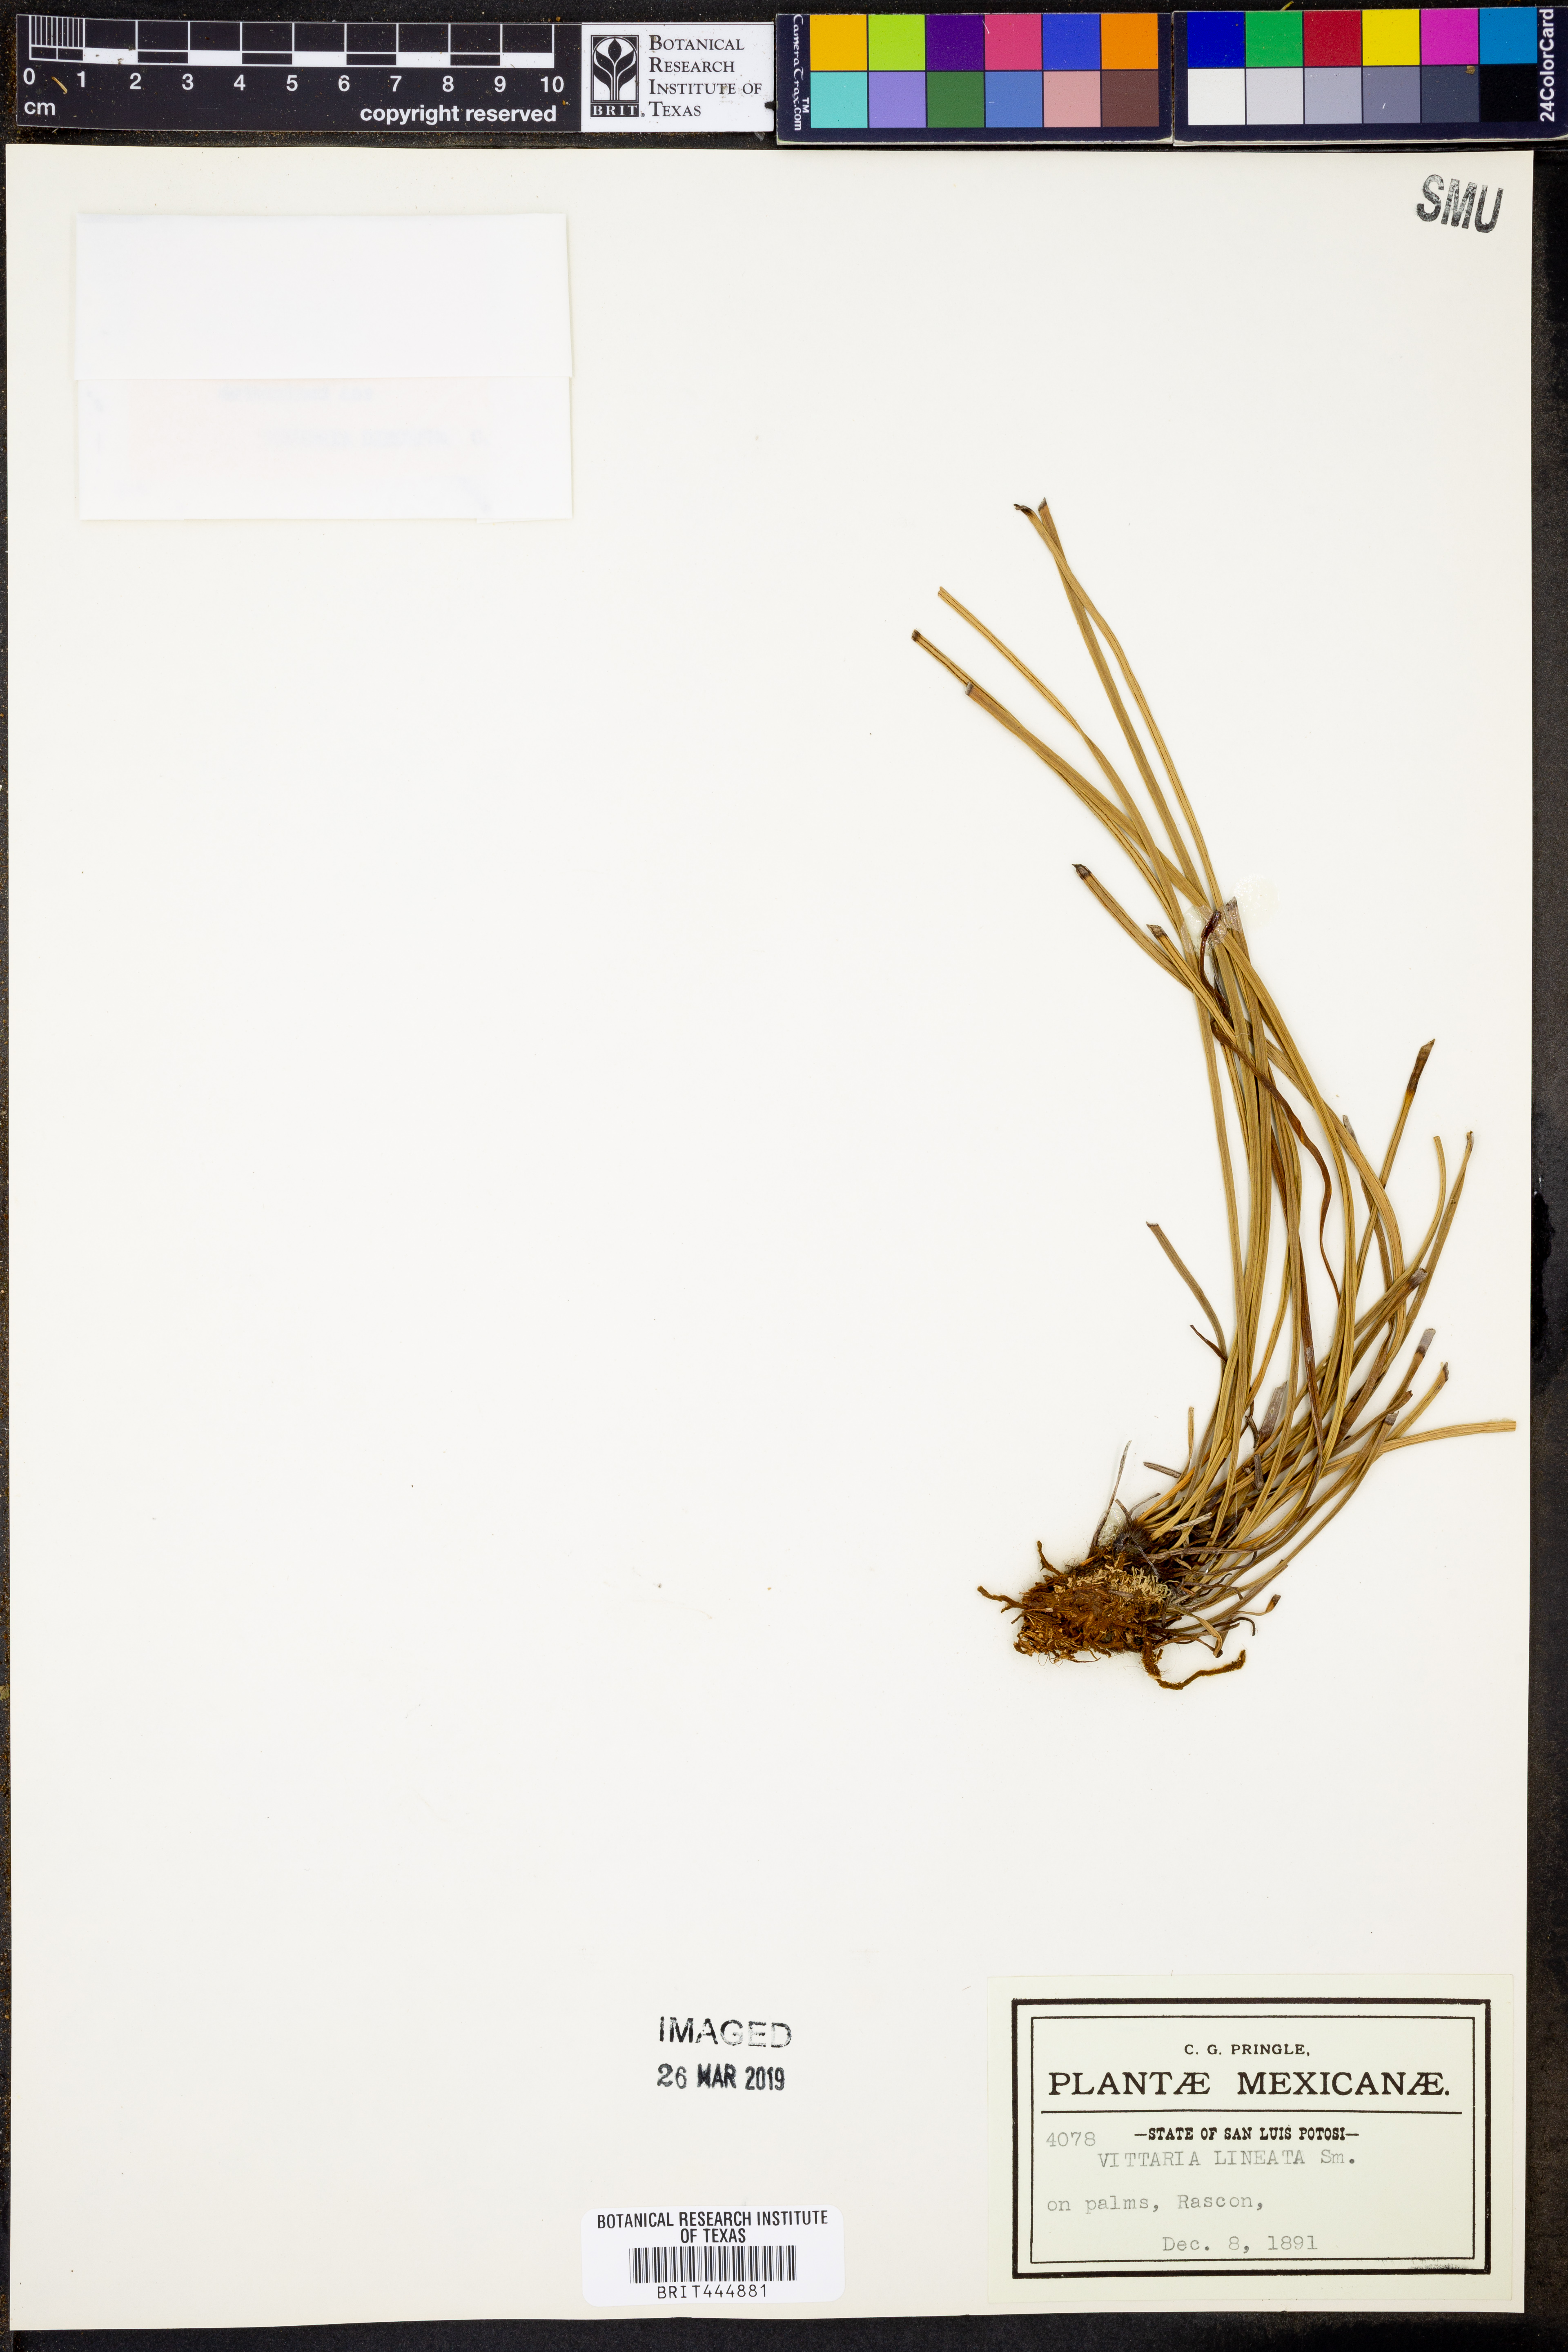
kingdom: Plantae
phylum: Tracheophyta
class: Polypodiopsida
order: Polypodiales
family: Pteridaceae
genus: Vittaria
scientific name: Vittaria lineata
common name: Shoestring fern
